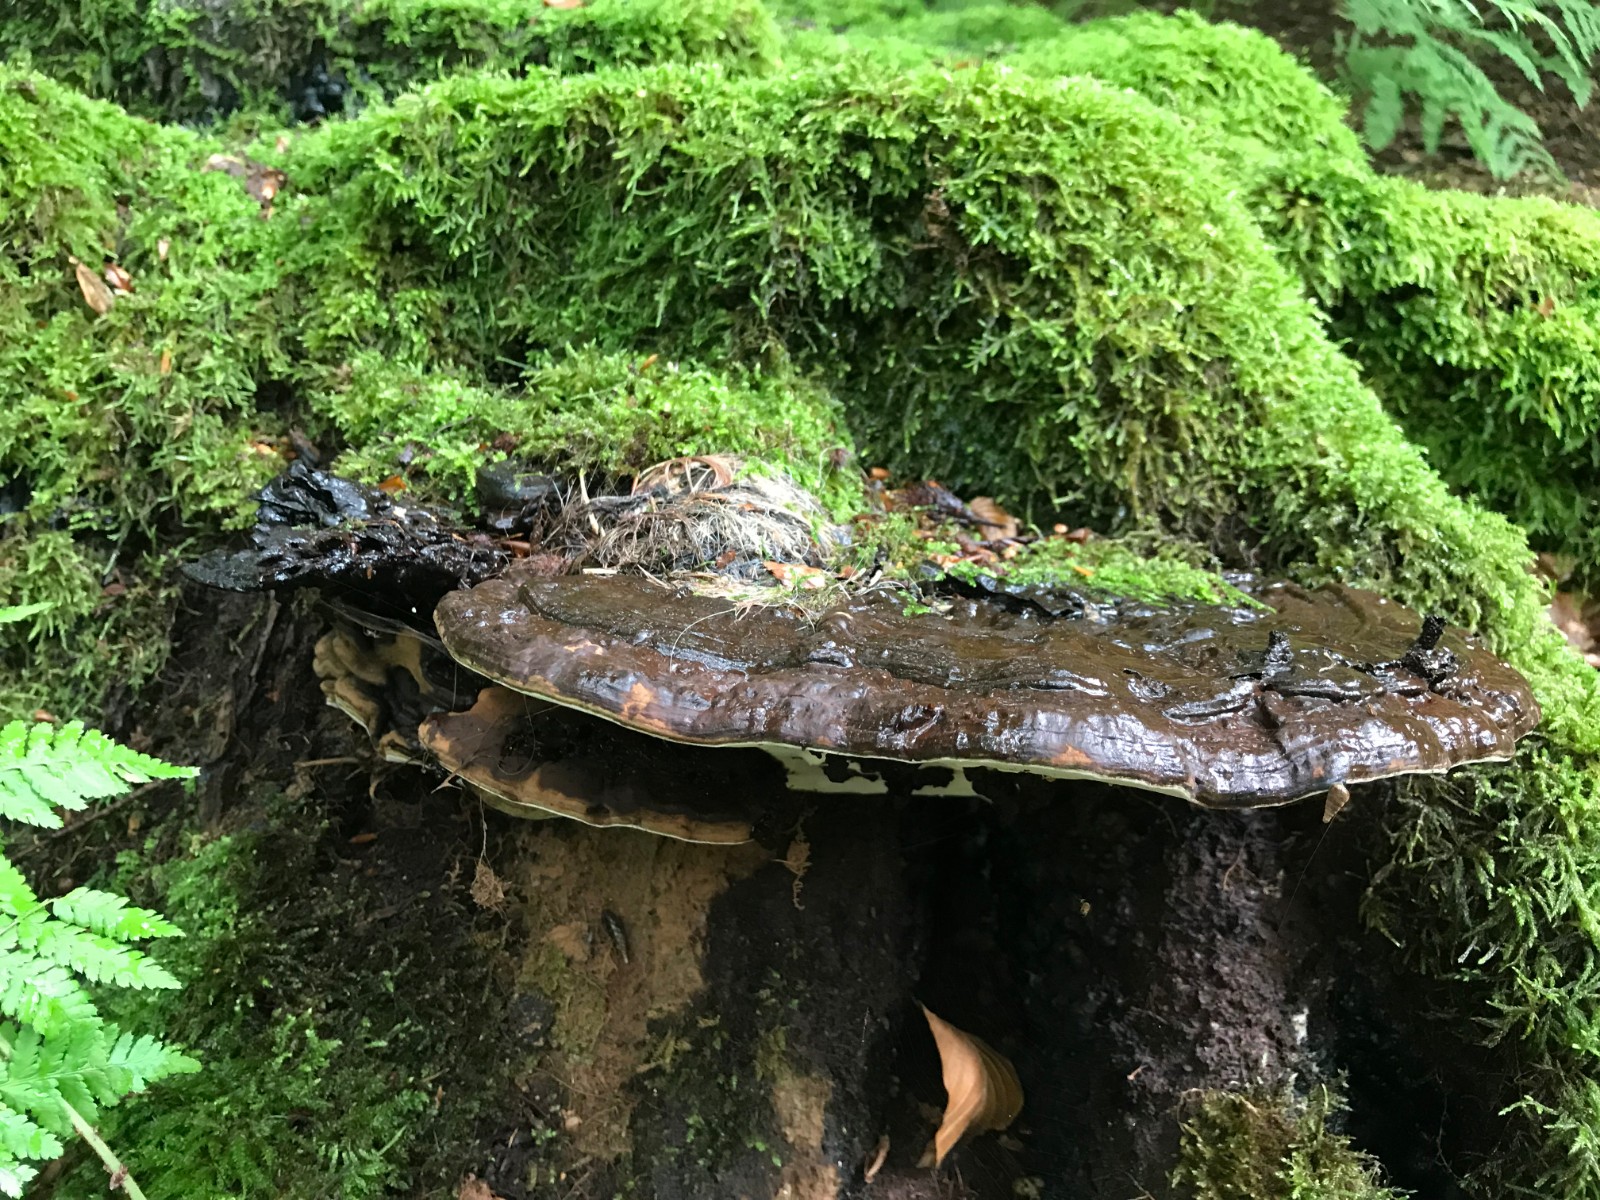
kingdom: Fungi
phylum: Basidiomycota
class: Agaricomycetes
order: Polyporales
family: Polyporaceae
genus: Ganoderma
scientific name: Ganoderma applanatum
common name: flad lakporesvamp
